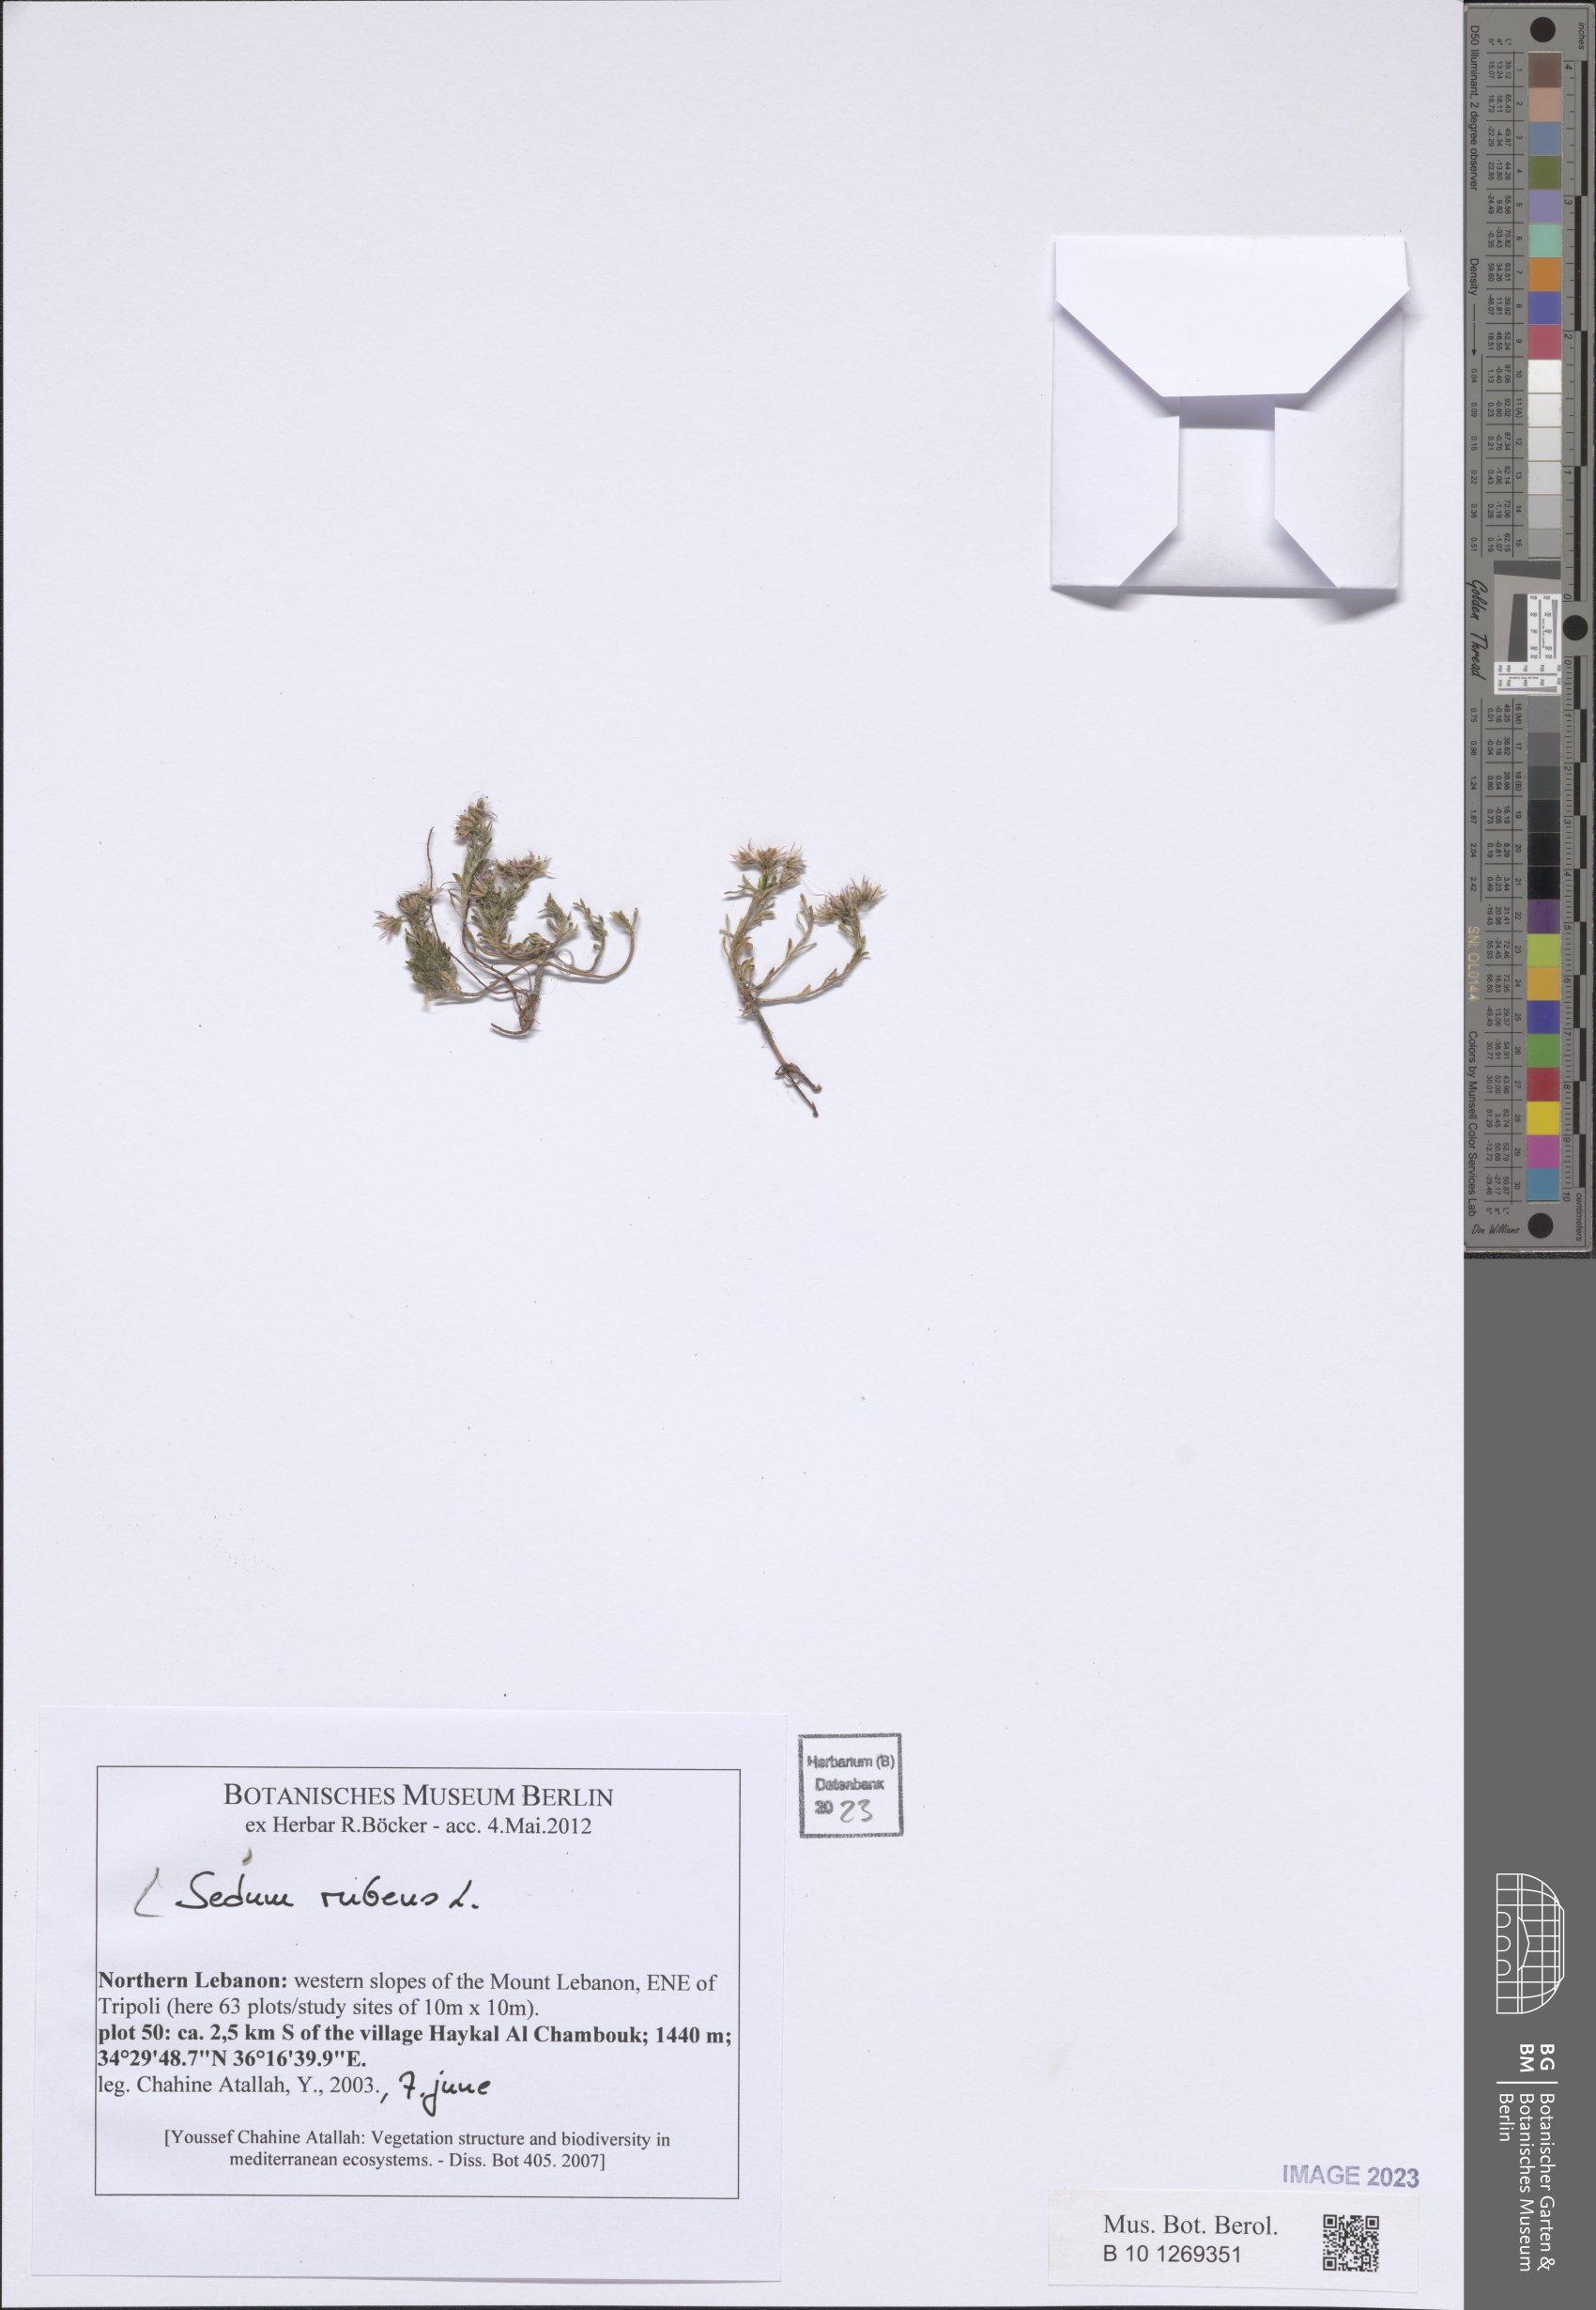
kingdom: Plantae
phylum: Tracheophyta
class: Magnoliopsida
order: Saxifragales
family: Crassulaceae
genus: Sedum
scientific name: Sedum rubens
